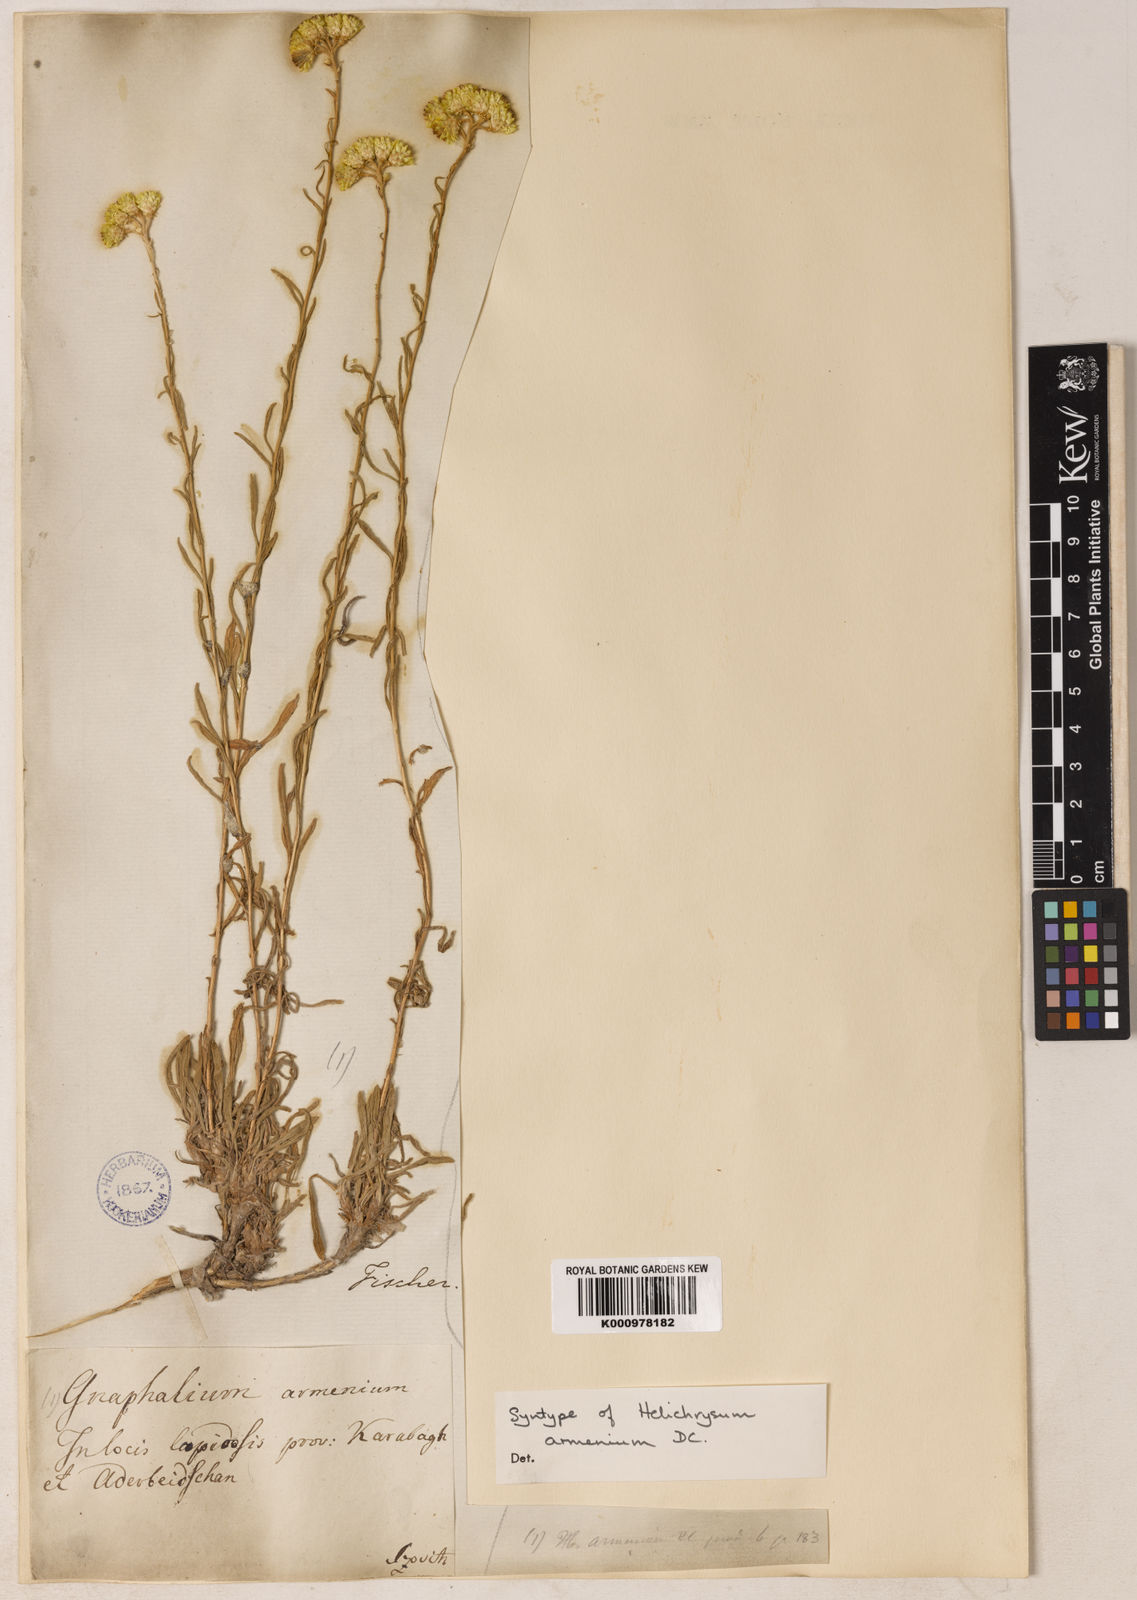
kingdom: Plantae
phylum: Tracheophyta
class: Magnoliopsida
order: Asterales
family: Asteraceae
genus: Helichrysum
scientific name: Helichrysum armenium
